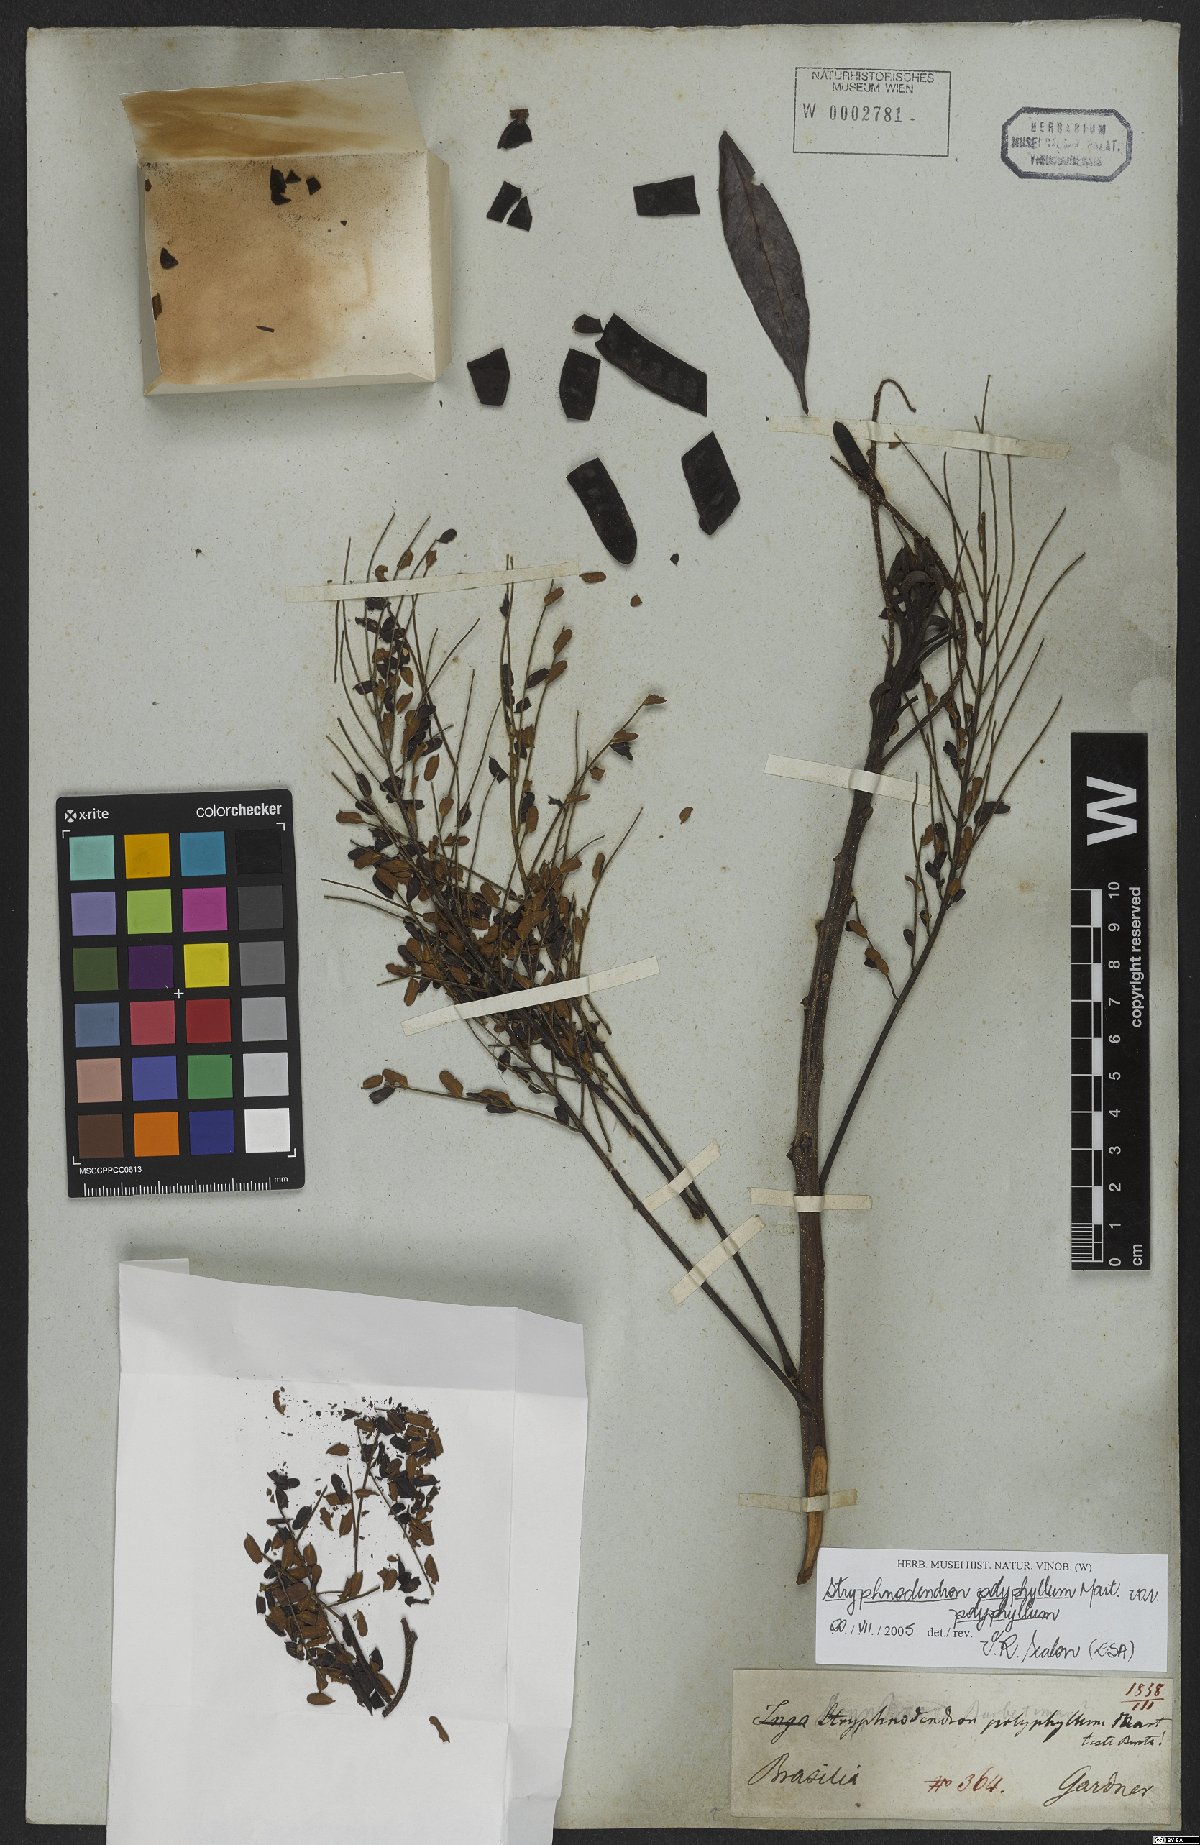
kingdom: Plantae
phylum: Tracheophyta
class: Magnoliopsida
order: Fabales
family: Fabaceae
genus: Stryphnodendron
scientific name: Stryphnodendron polyphyllum
